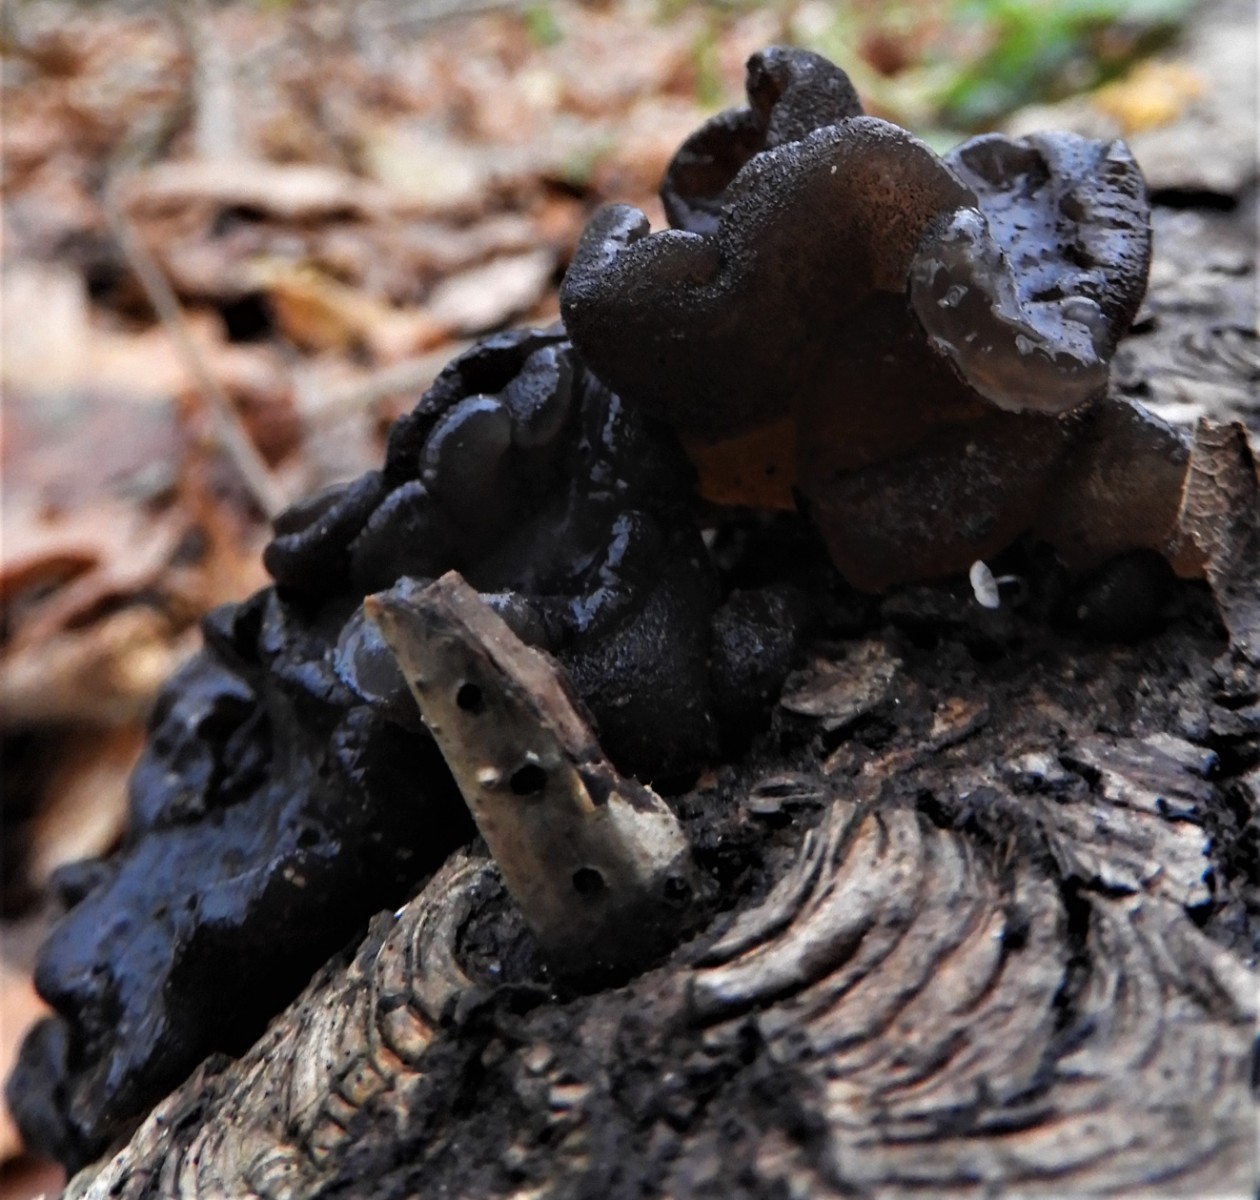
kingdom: Fungi
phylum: Basidiomycota
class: Agaricomycetes
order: Auriculariales
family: Auriculariaceae
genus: Exidia
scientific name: Exidia glandulosa
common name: ege-bævretop
